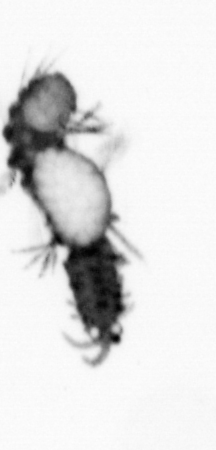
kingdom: Animalia
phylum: Annelida
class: Polychaeta
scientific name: Polychaeta
